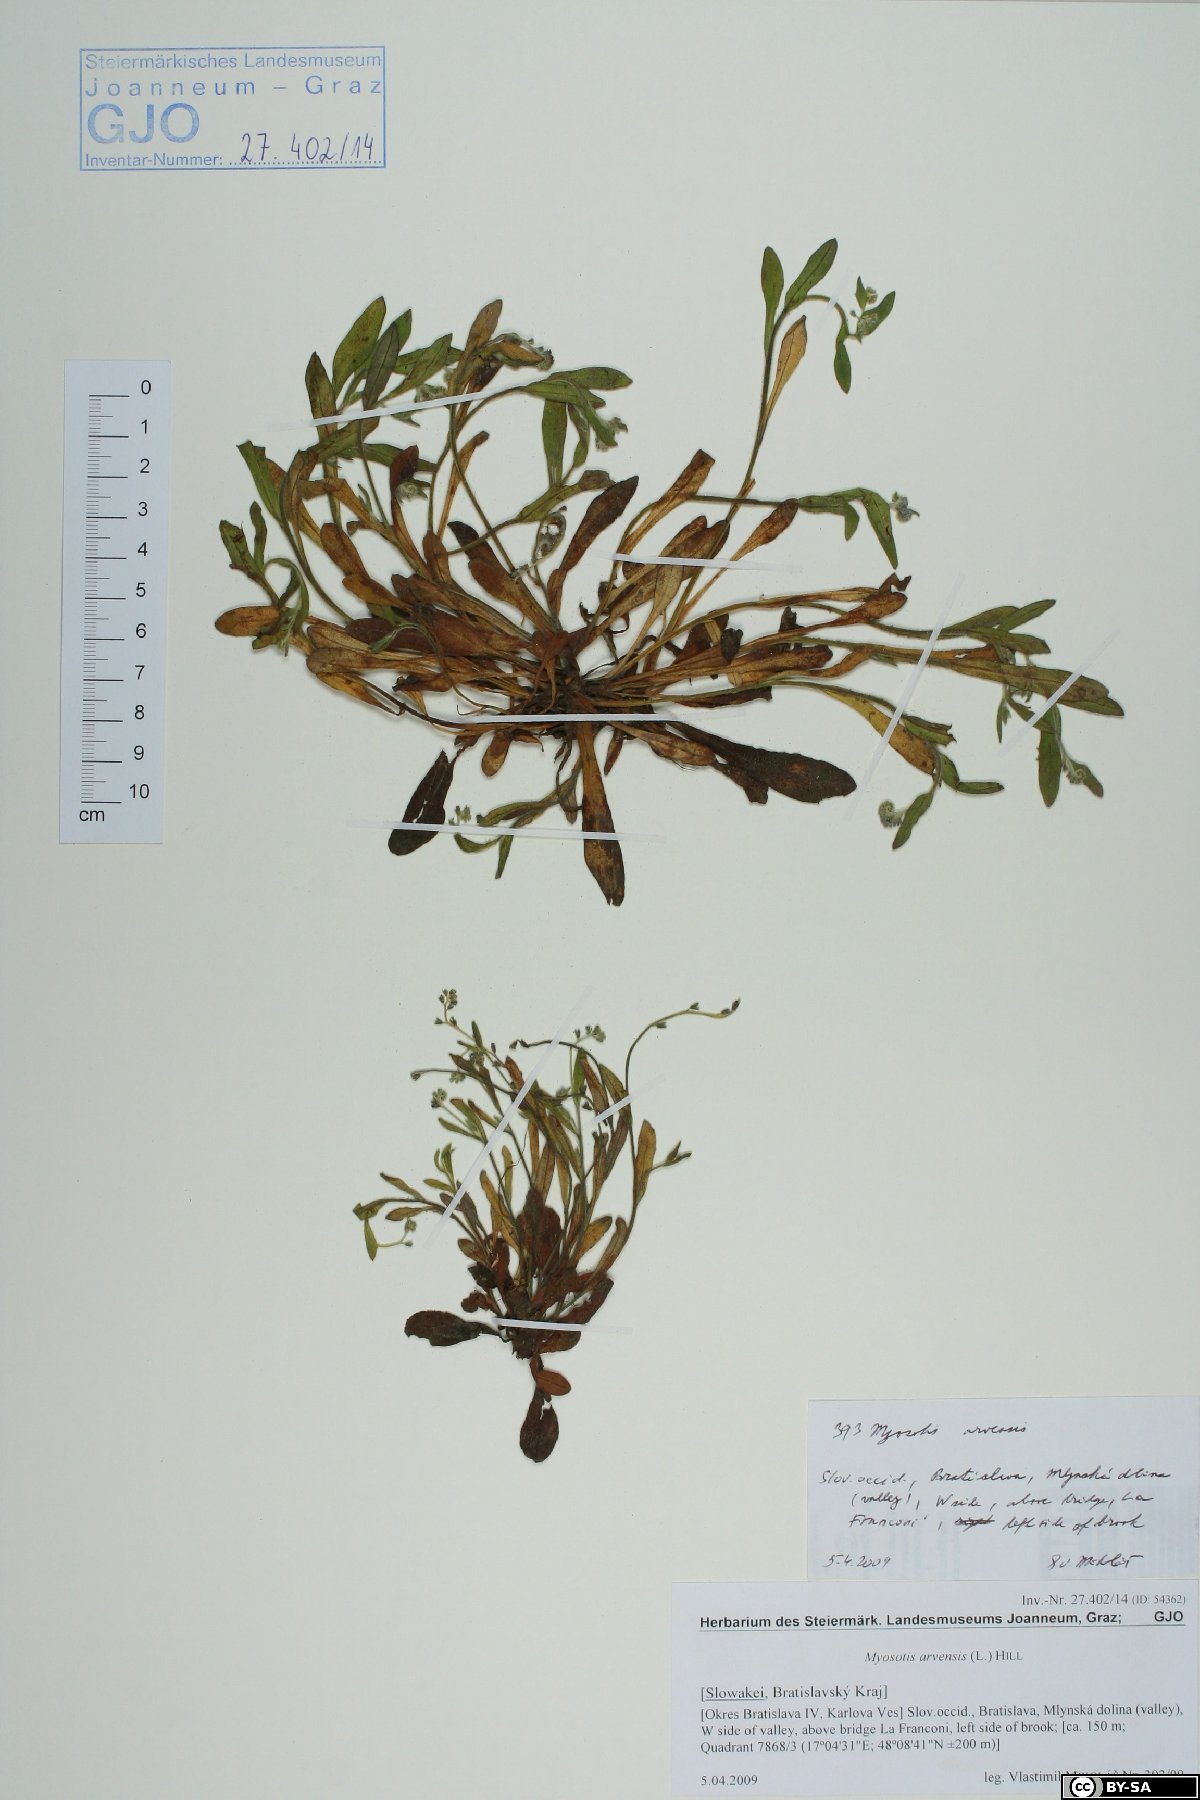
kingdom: Plantae
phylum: Tracheophyta
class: Magnoliopsida
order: Boraginales
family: Boraginaceae
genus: Myosotis
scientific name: Myosotis arvensis
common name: Field forget-me-not
